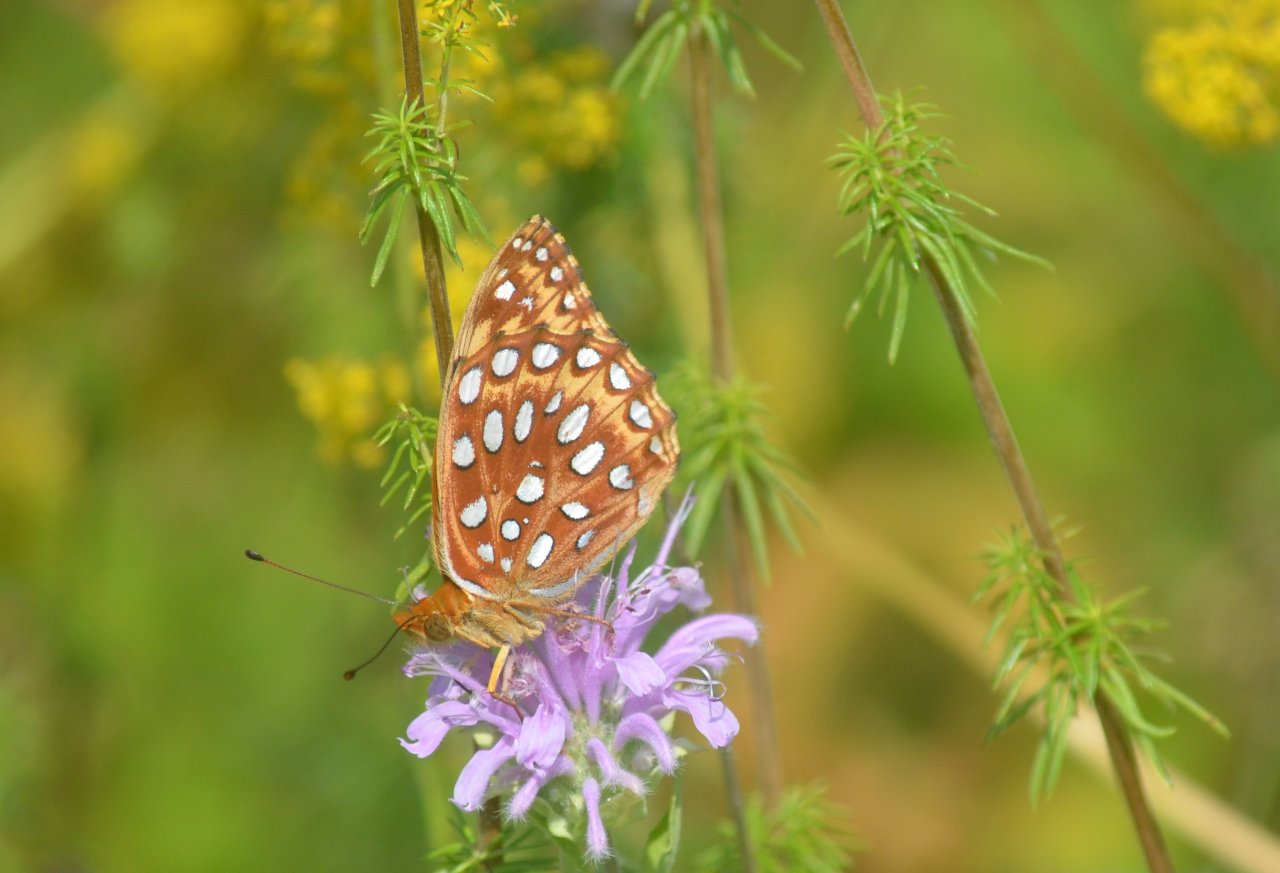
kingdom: Animalia
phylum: Arthropoda
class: Insecta
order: Lepidoptera
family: Nymphalidae
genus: Speyeria
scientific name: Speyeria aphrodite
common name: Aphrodite Fritillary
